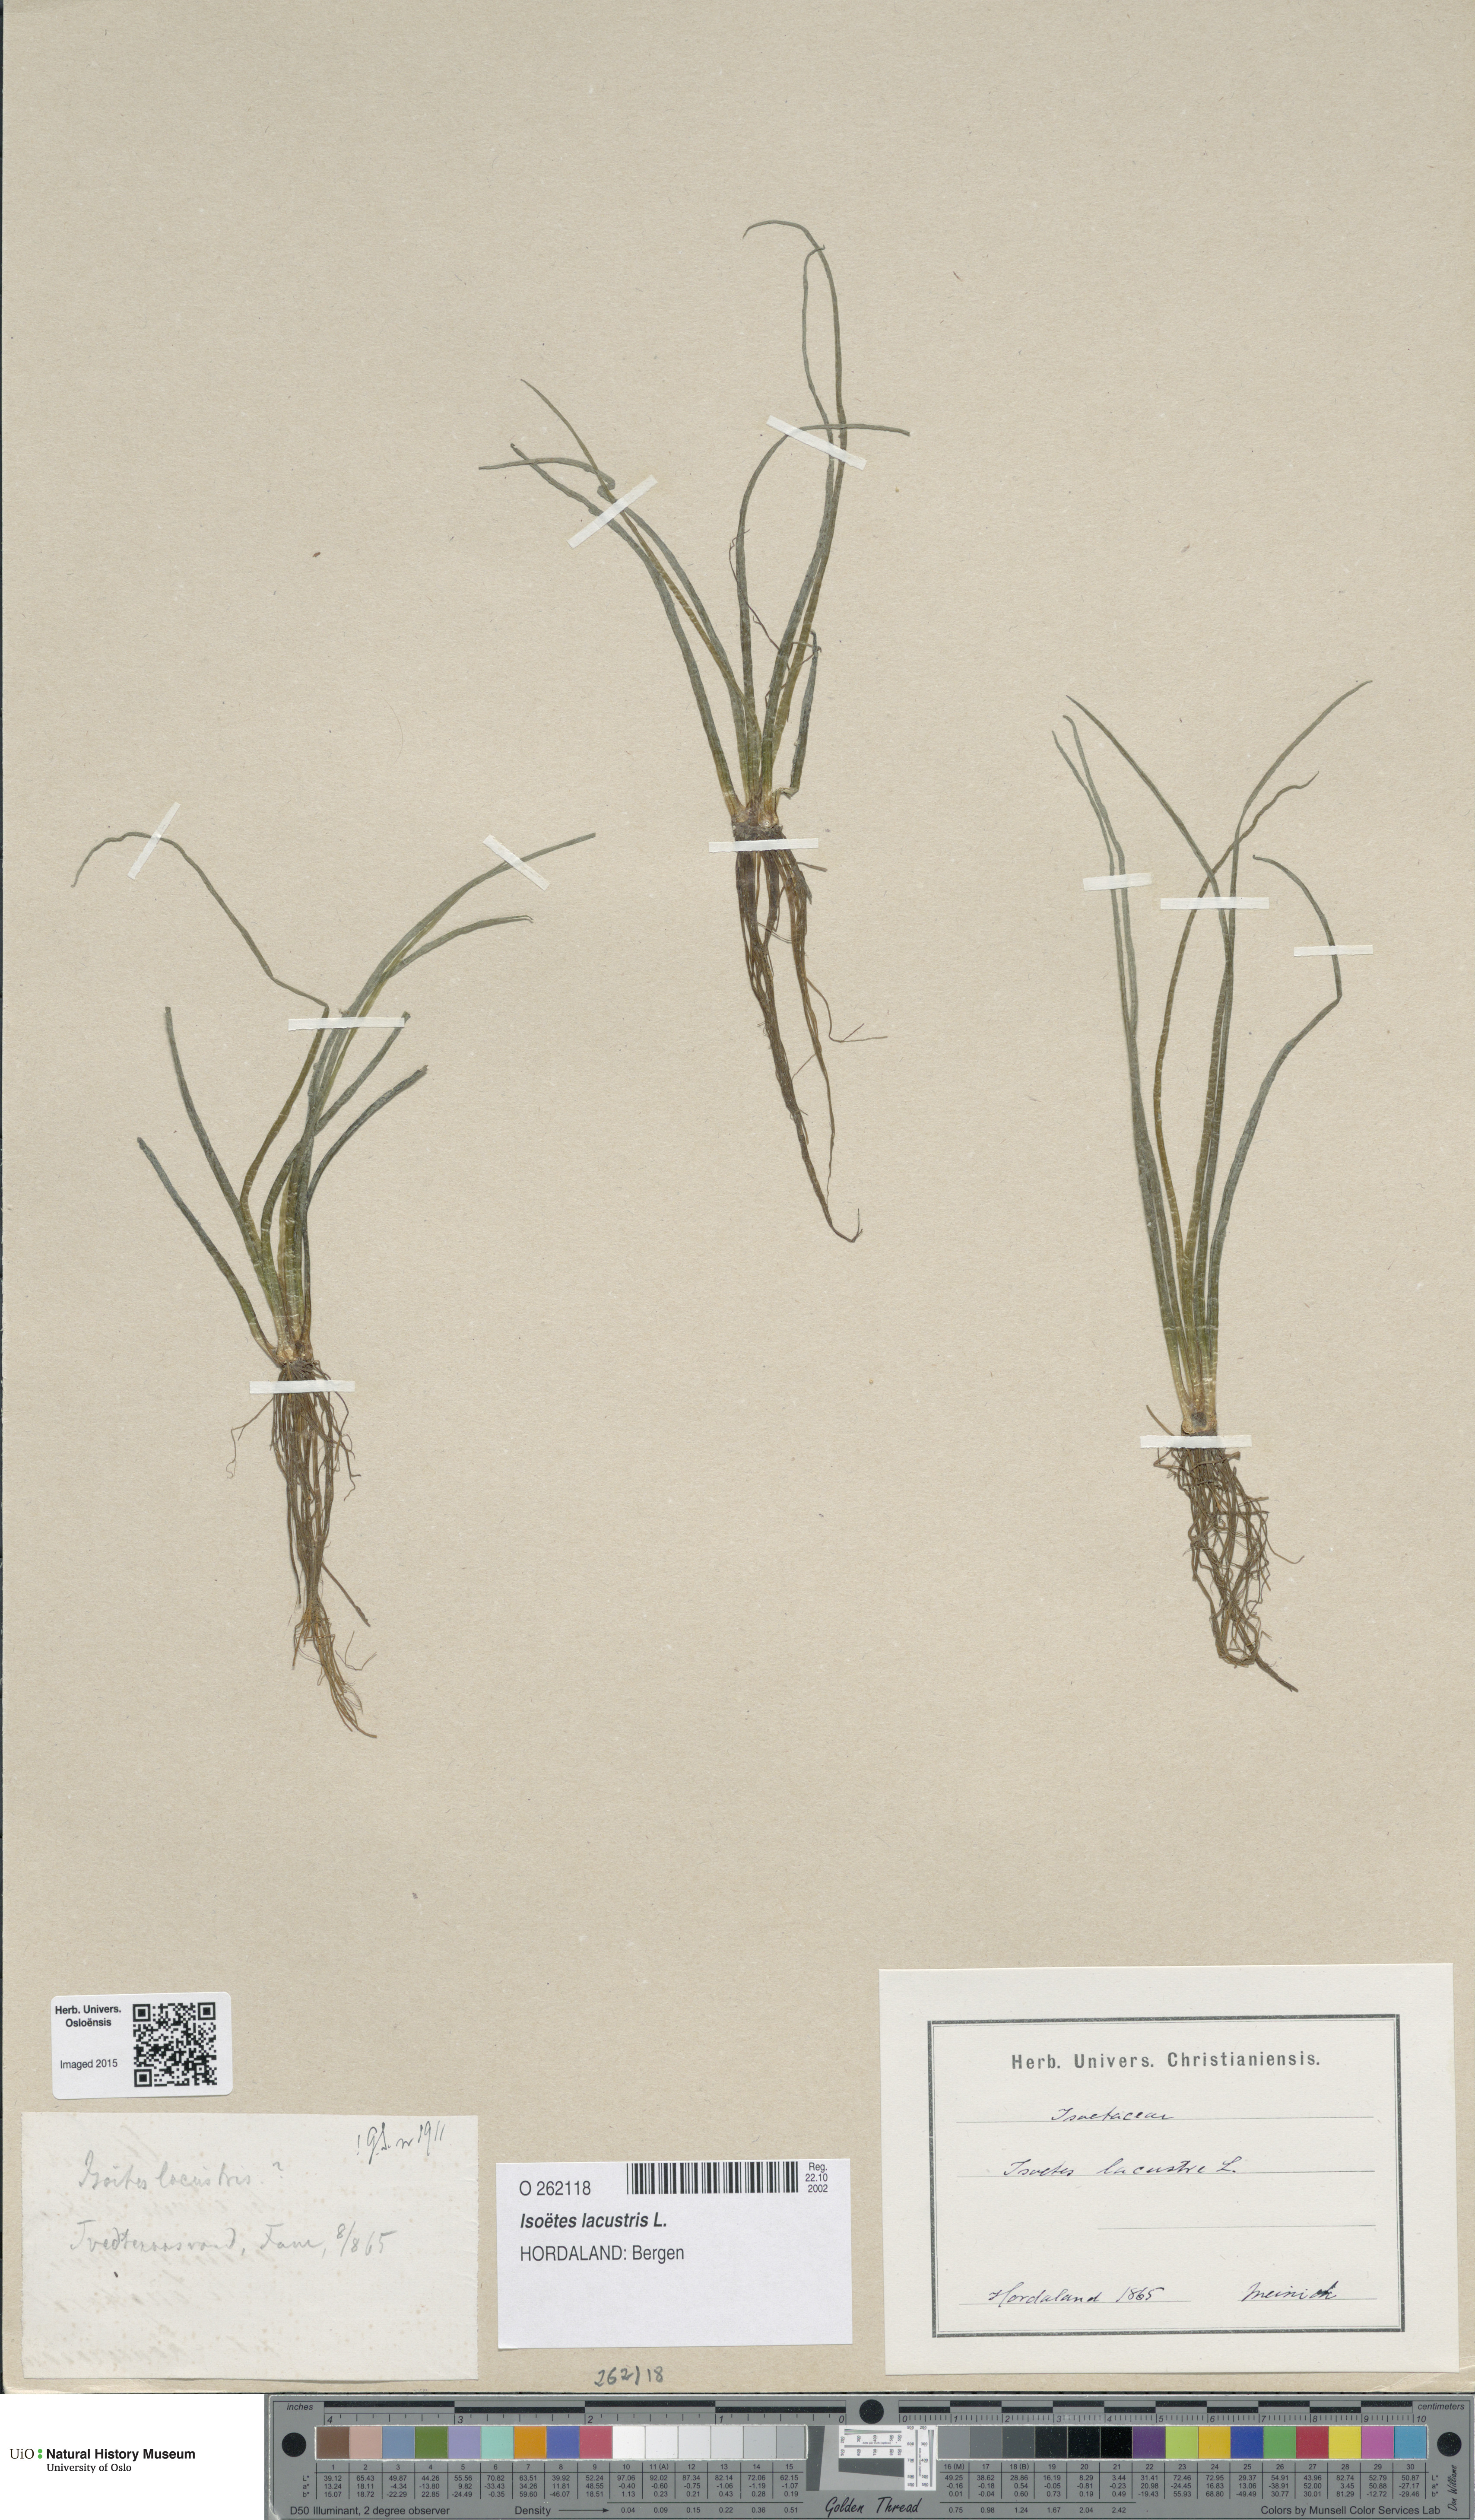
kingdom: Plantae
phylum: Tracheophyta
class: Lycopodiopsida
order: Isoetales
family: Isoetaceae
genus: Isoetes
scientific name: Isoetes lacustris
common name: Common quillwort
